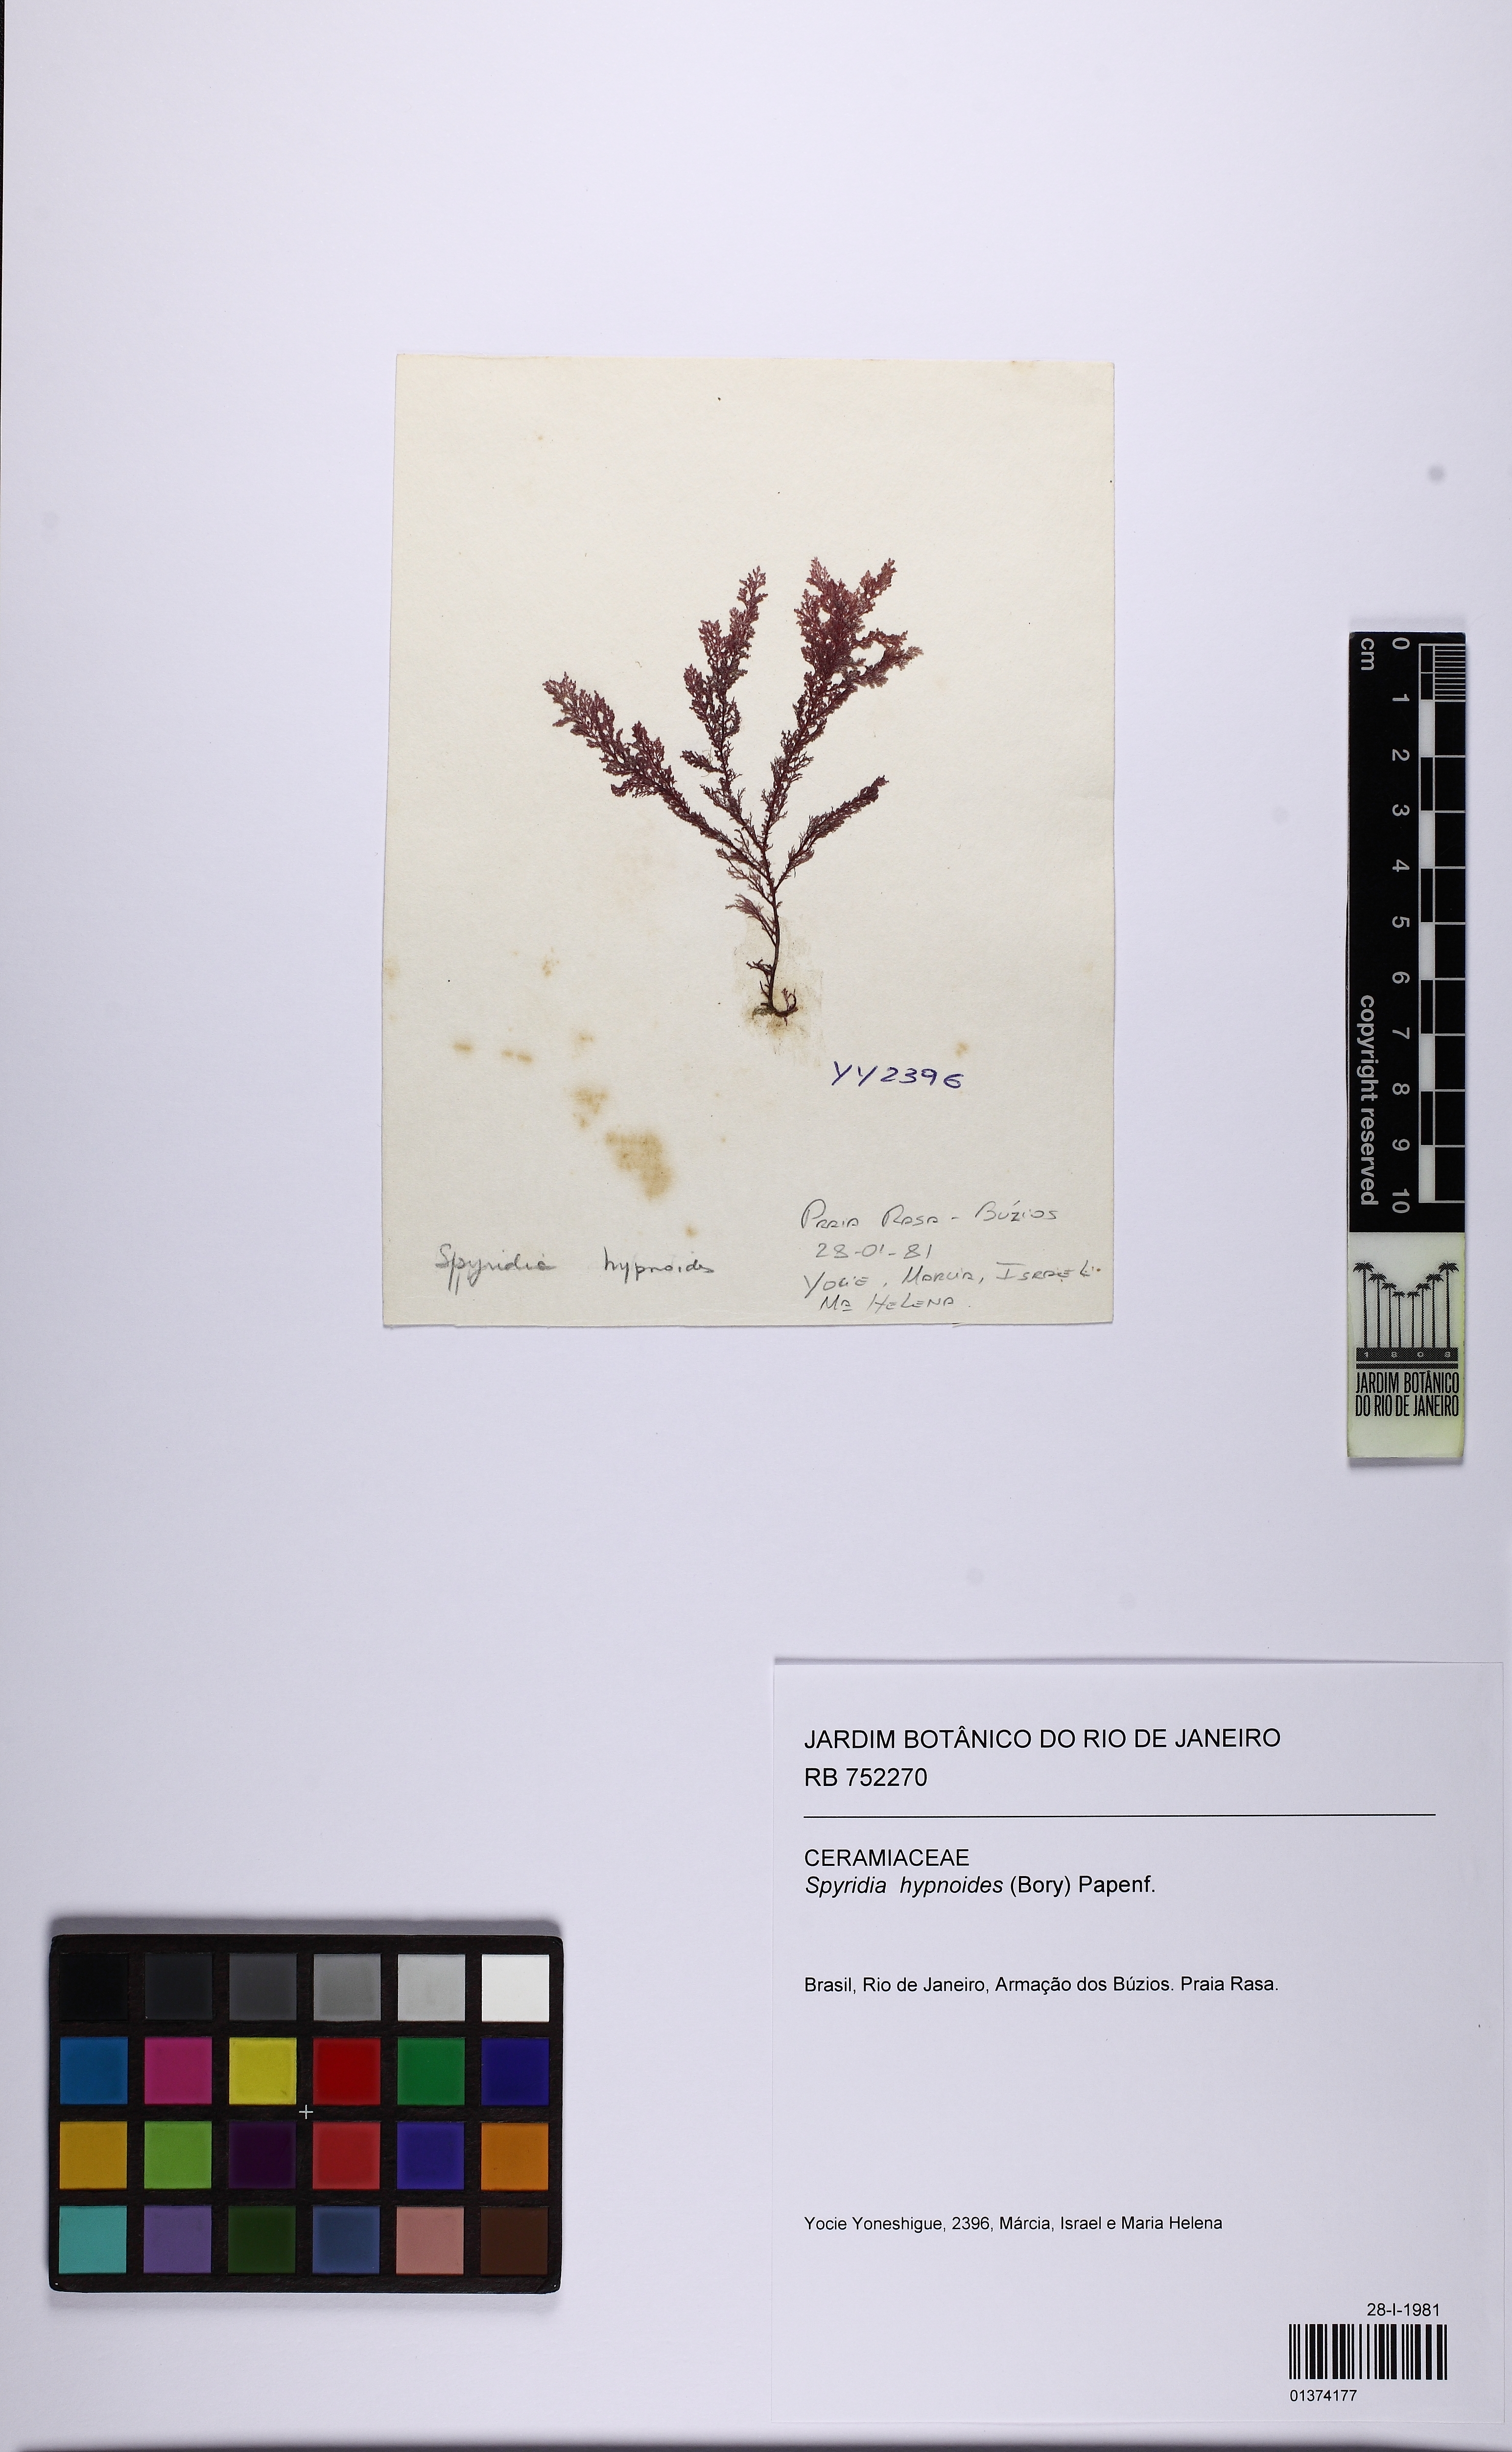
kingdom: Plantae
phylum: Rhodophyta
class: Florideophyceae
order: Ceramiales
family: Spyridiaceae
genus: Spyridia
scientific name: Spyridia hypnoides
